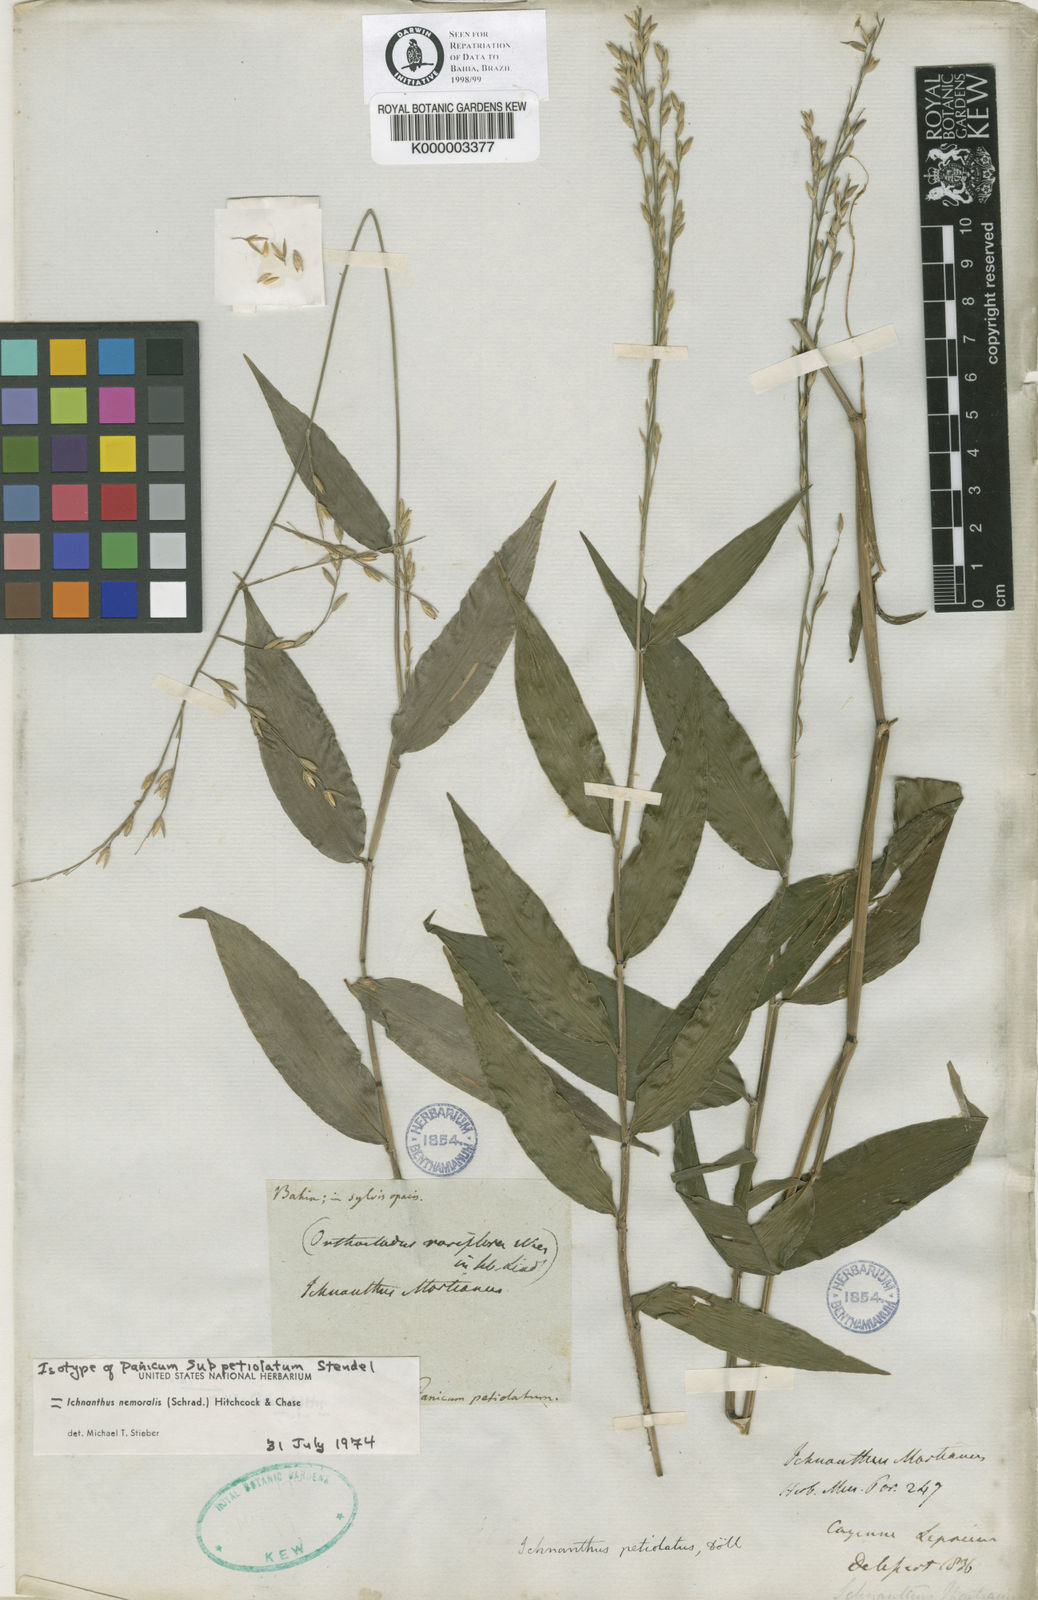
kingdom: Plantae
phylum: Tracheophyta
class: Liliopsida
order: Poales
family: Poaceae
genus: Ichnanthus
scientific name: Ichnanthus nemoralis
